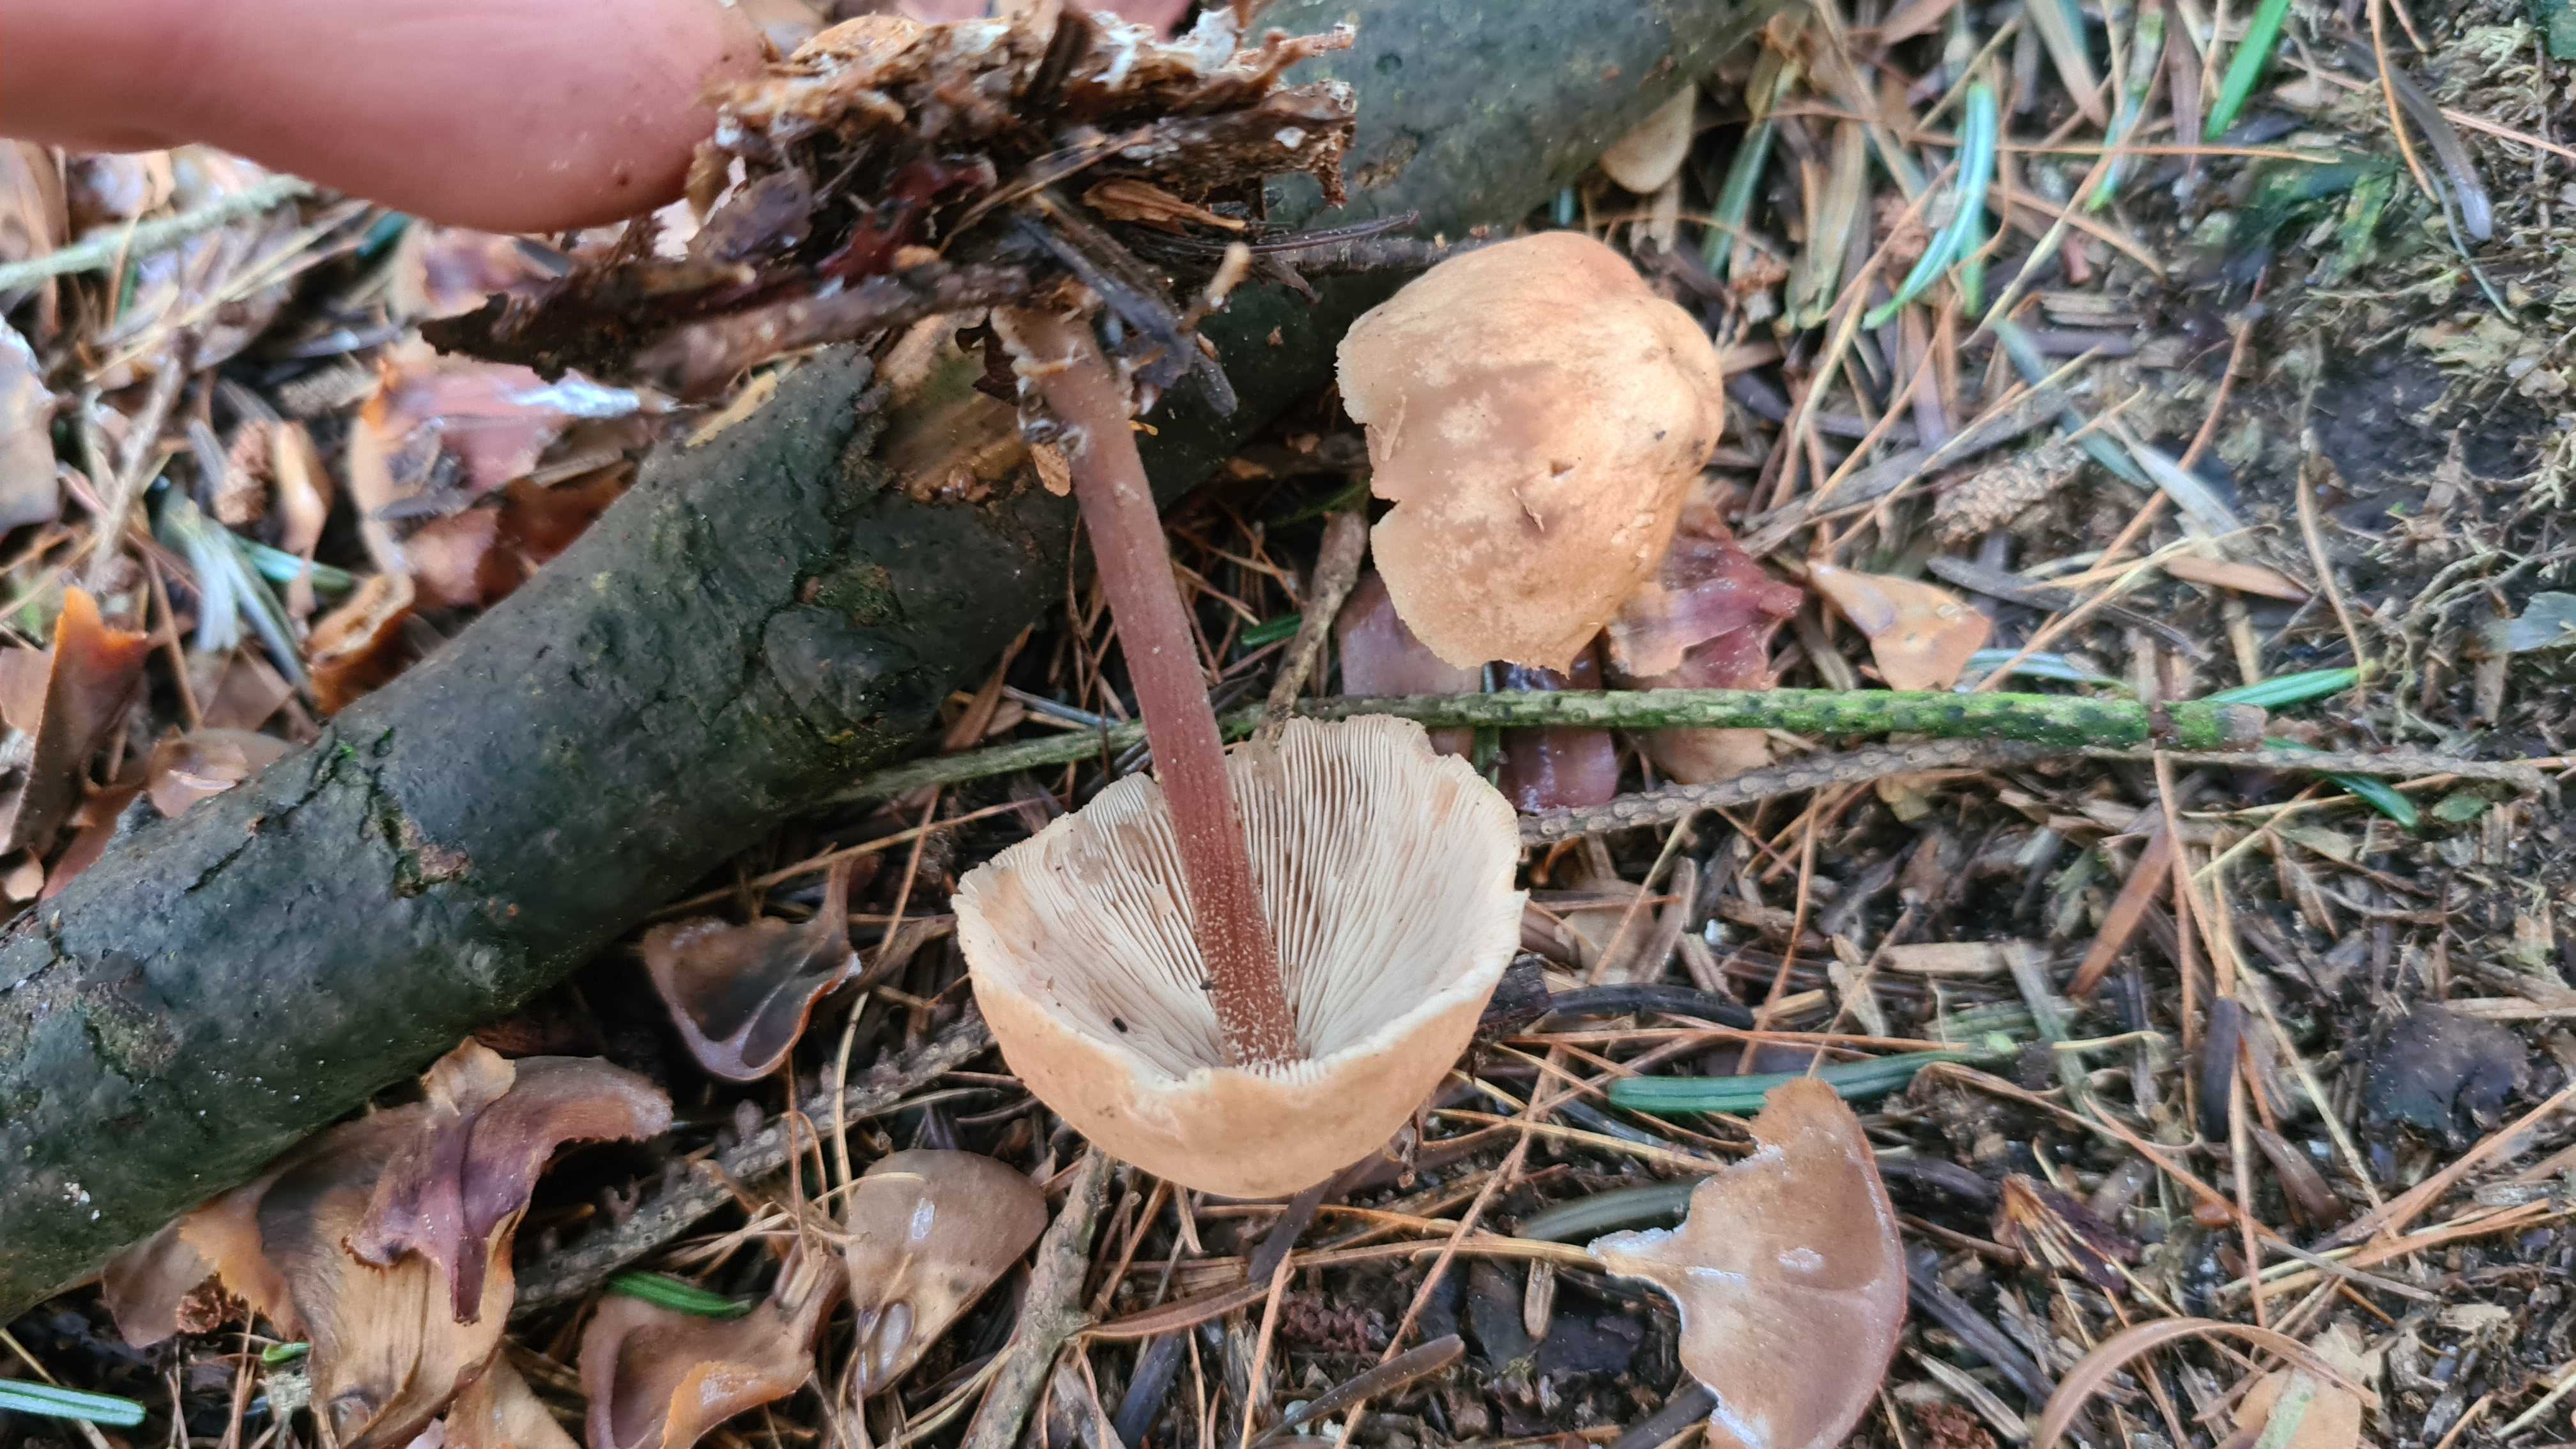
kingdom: Fungi
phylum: Basidiomycota
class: Agaricomycetes
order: Agaricales
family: Omphalotaceae
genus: Collybiopsis
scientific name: Collybiopsis confluens
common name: knippe-fladhat
